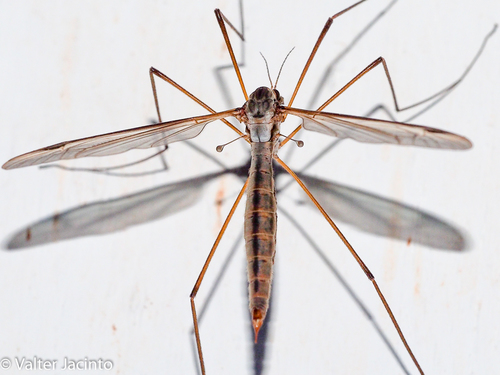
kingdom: Animalia
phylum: Arthropoda
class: Insecta
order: Diptera
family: Tipulidae
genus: Tipula
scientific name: Tipula
